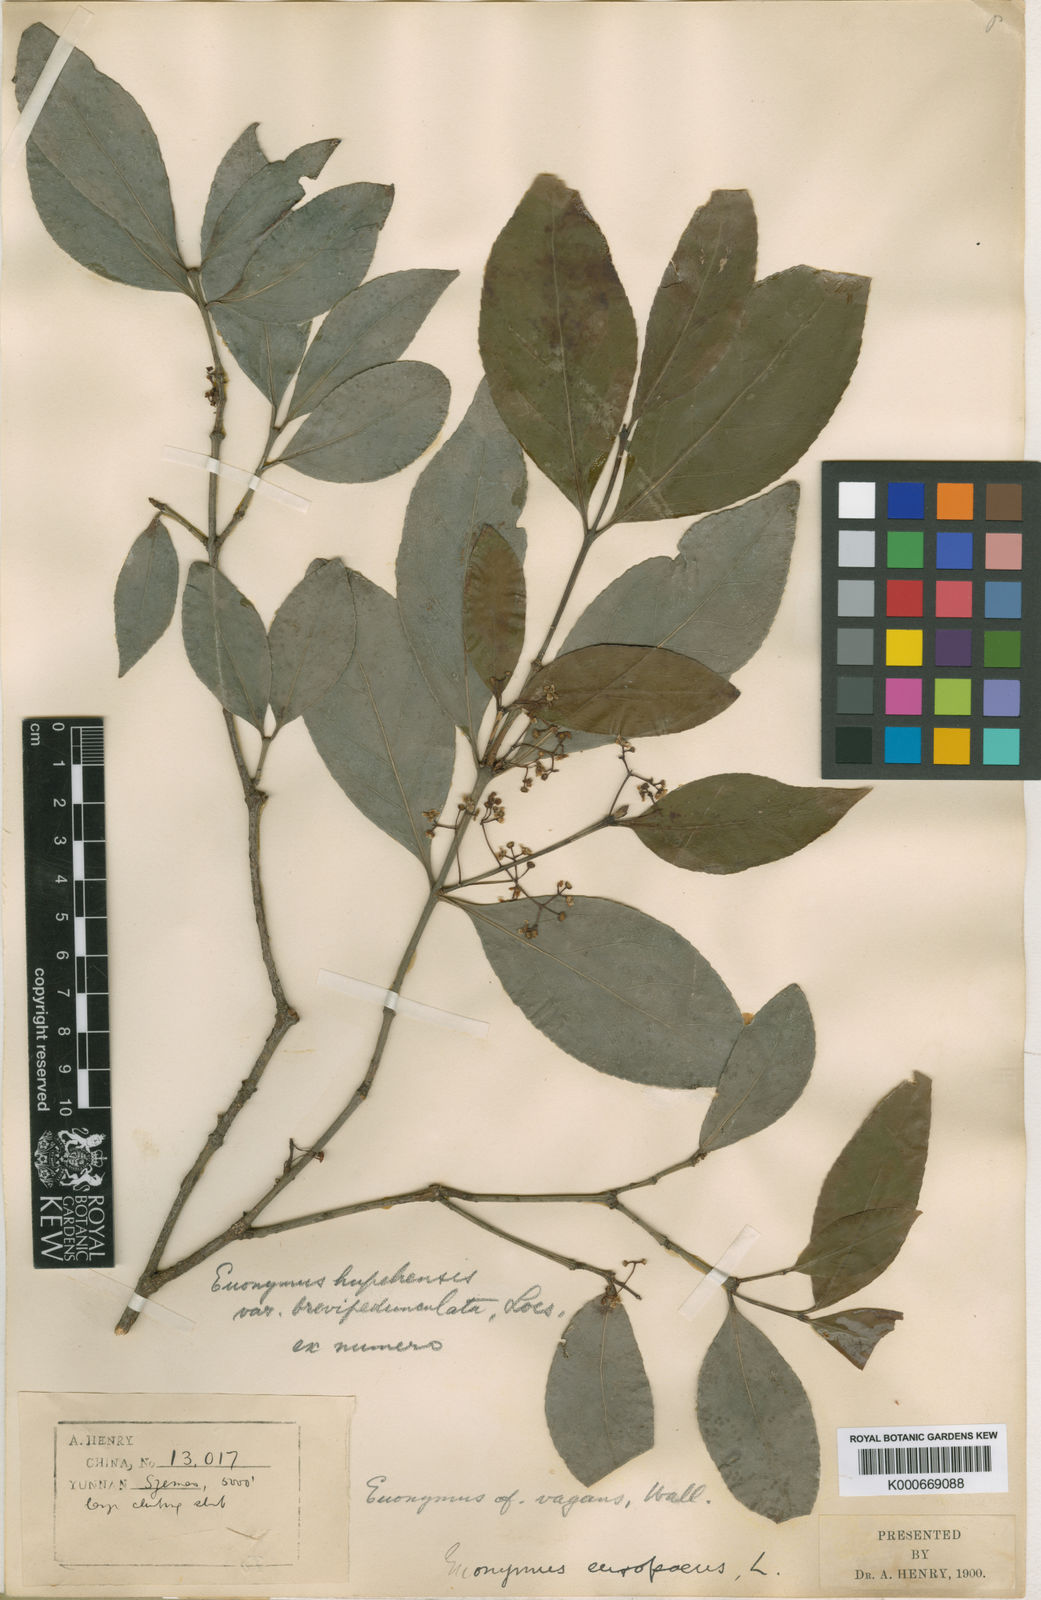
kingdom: Plantae
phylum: Tracheophyta
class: Magnoliopsida
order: Celastrales
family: Celastraceae
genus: Euonymus
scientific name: Euonymus vagans
